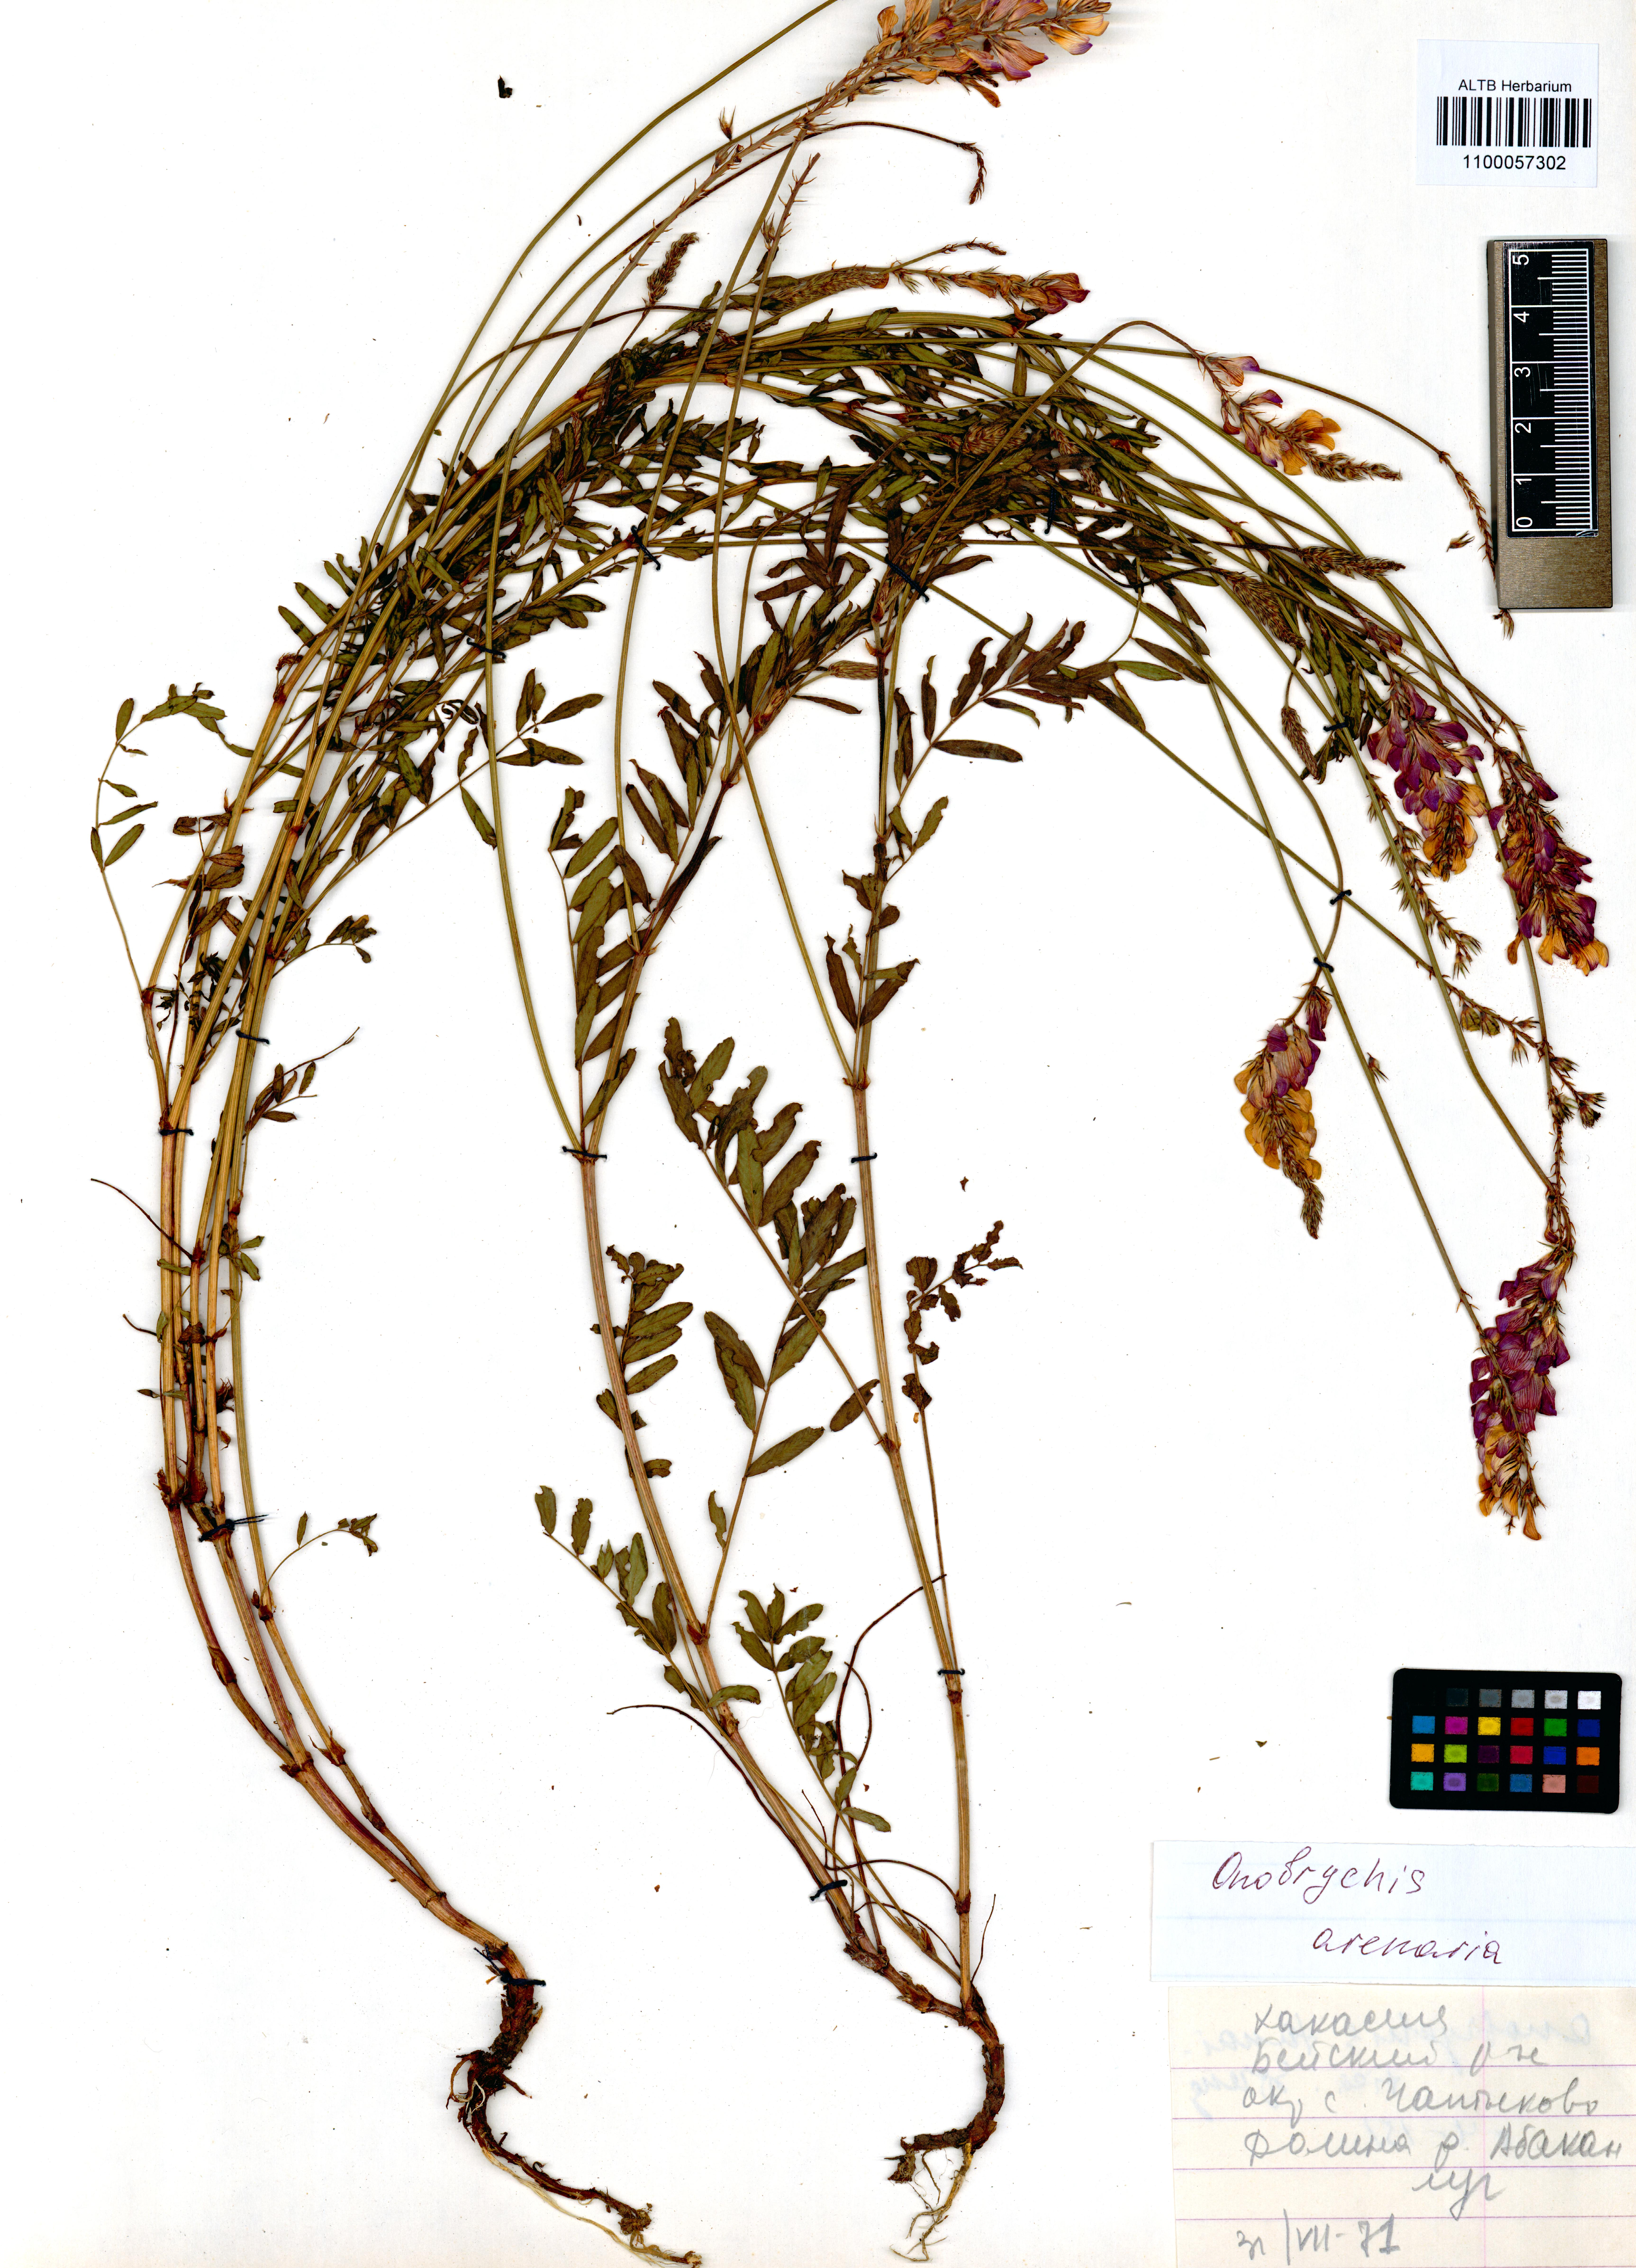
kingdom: Plantae
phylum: Tracheophyta
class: Magnoliopsida
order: Fabales
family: Fabaceae
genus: Onobrychis
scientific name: Onobrychis arenaria
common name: Sand esparcet
